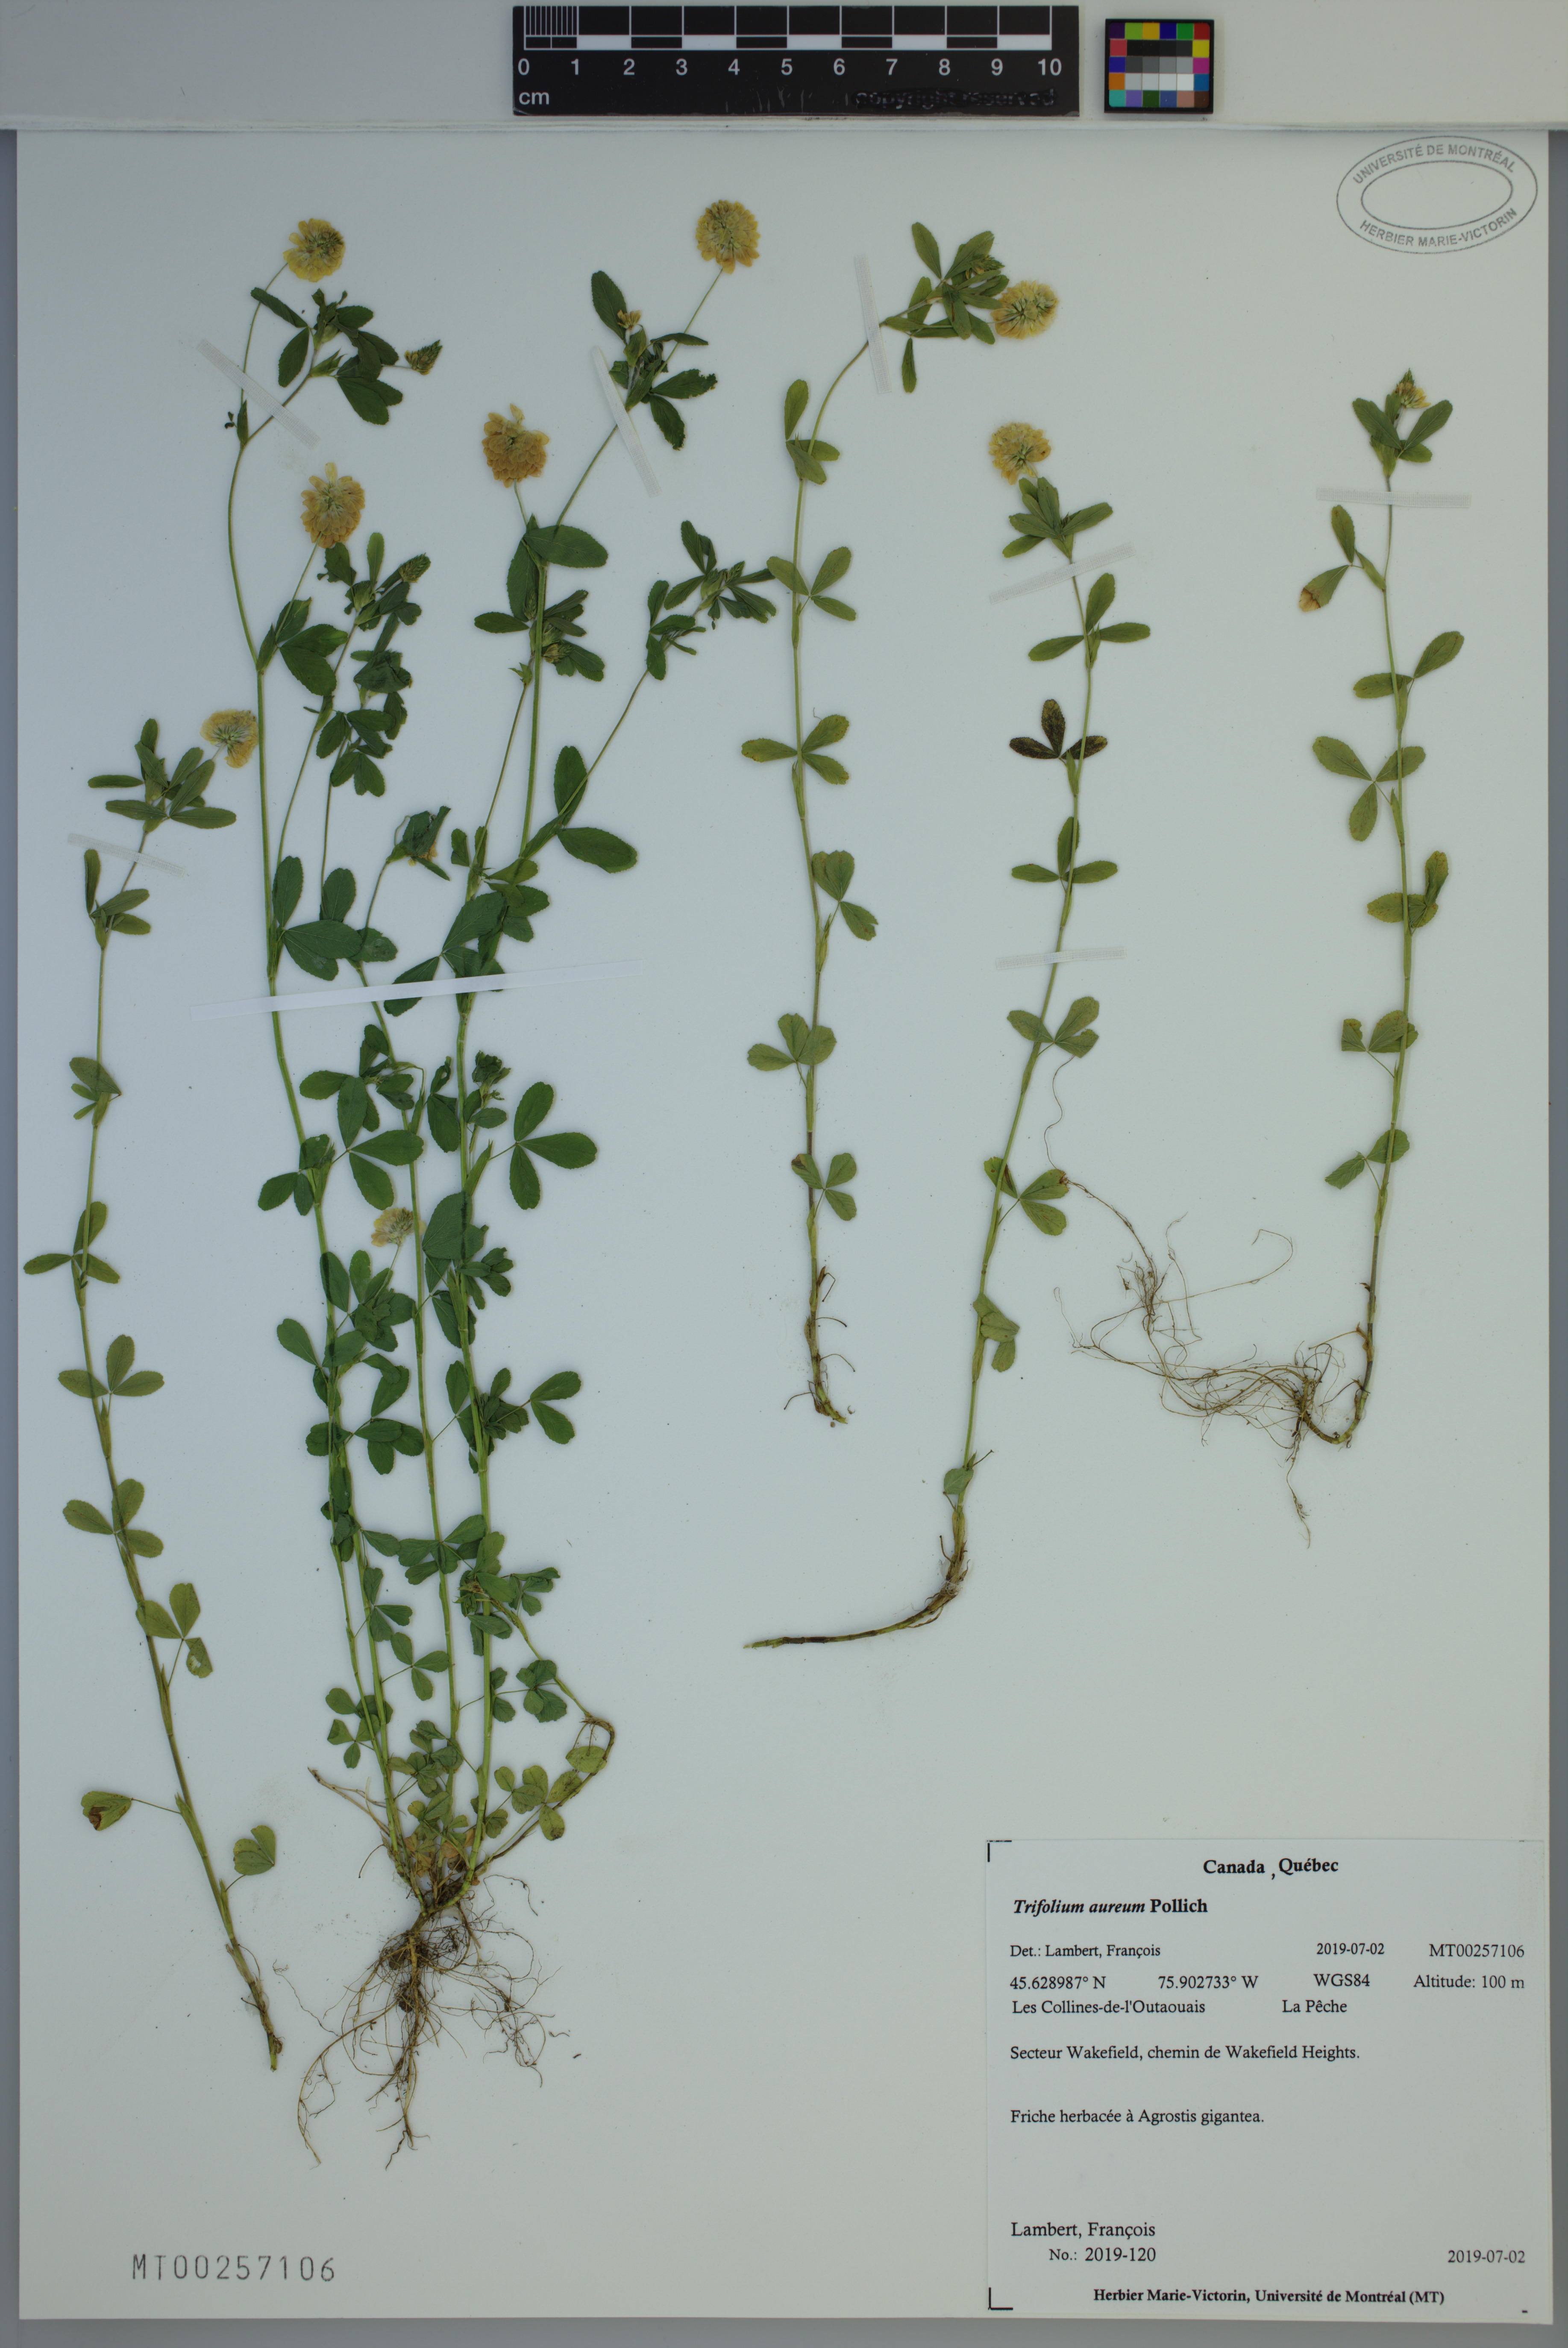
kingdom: Plantae
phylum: Tracheophyta
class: Magnoliopsida
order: Fabales
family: Fabaceae
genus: Trifolium
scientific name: Trifolium aureum
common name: Golden clover
